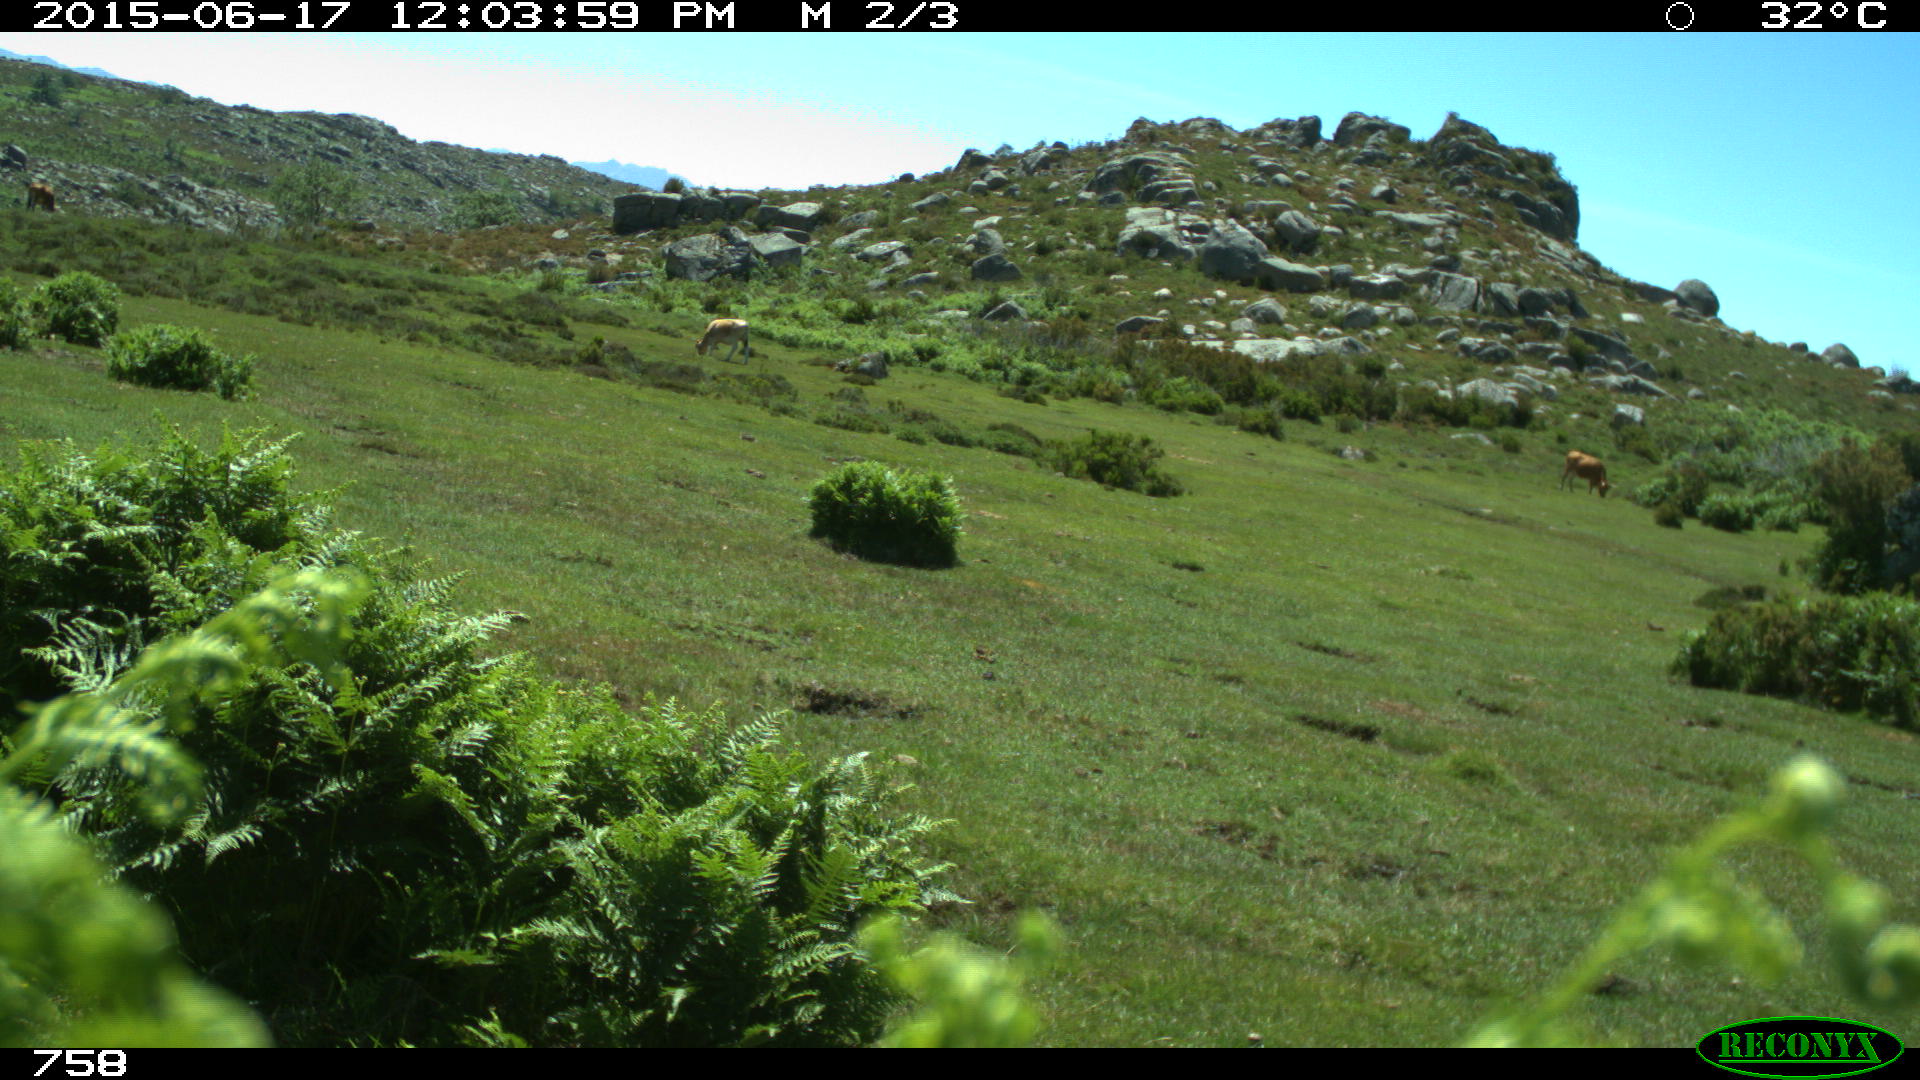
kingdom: Animalia
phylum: Chordata
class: Mammalia
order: Artiodactyla
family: Bovidae
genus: Bos
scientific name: Bos taurus
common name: Domesticated cattle
